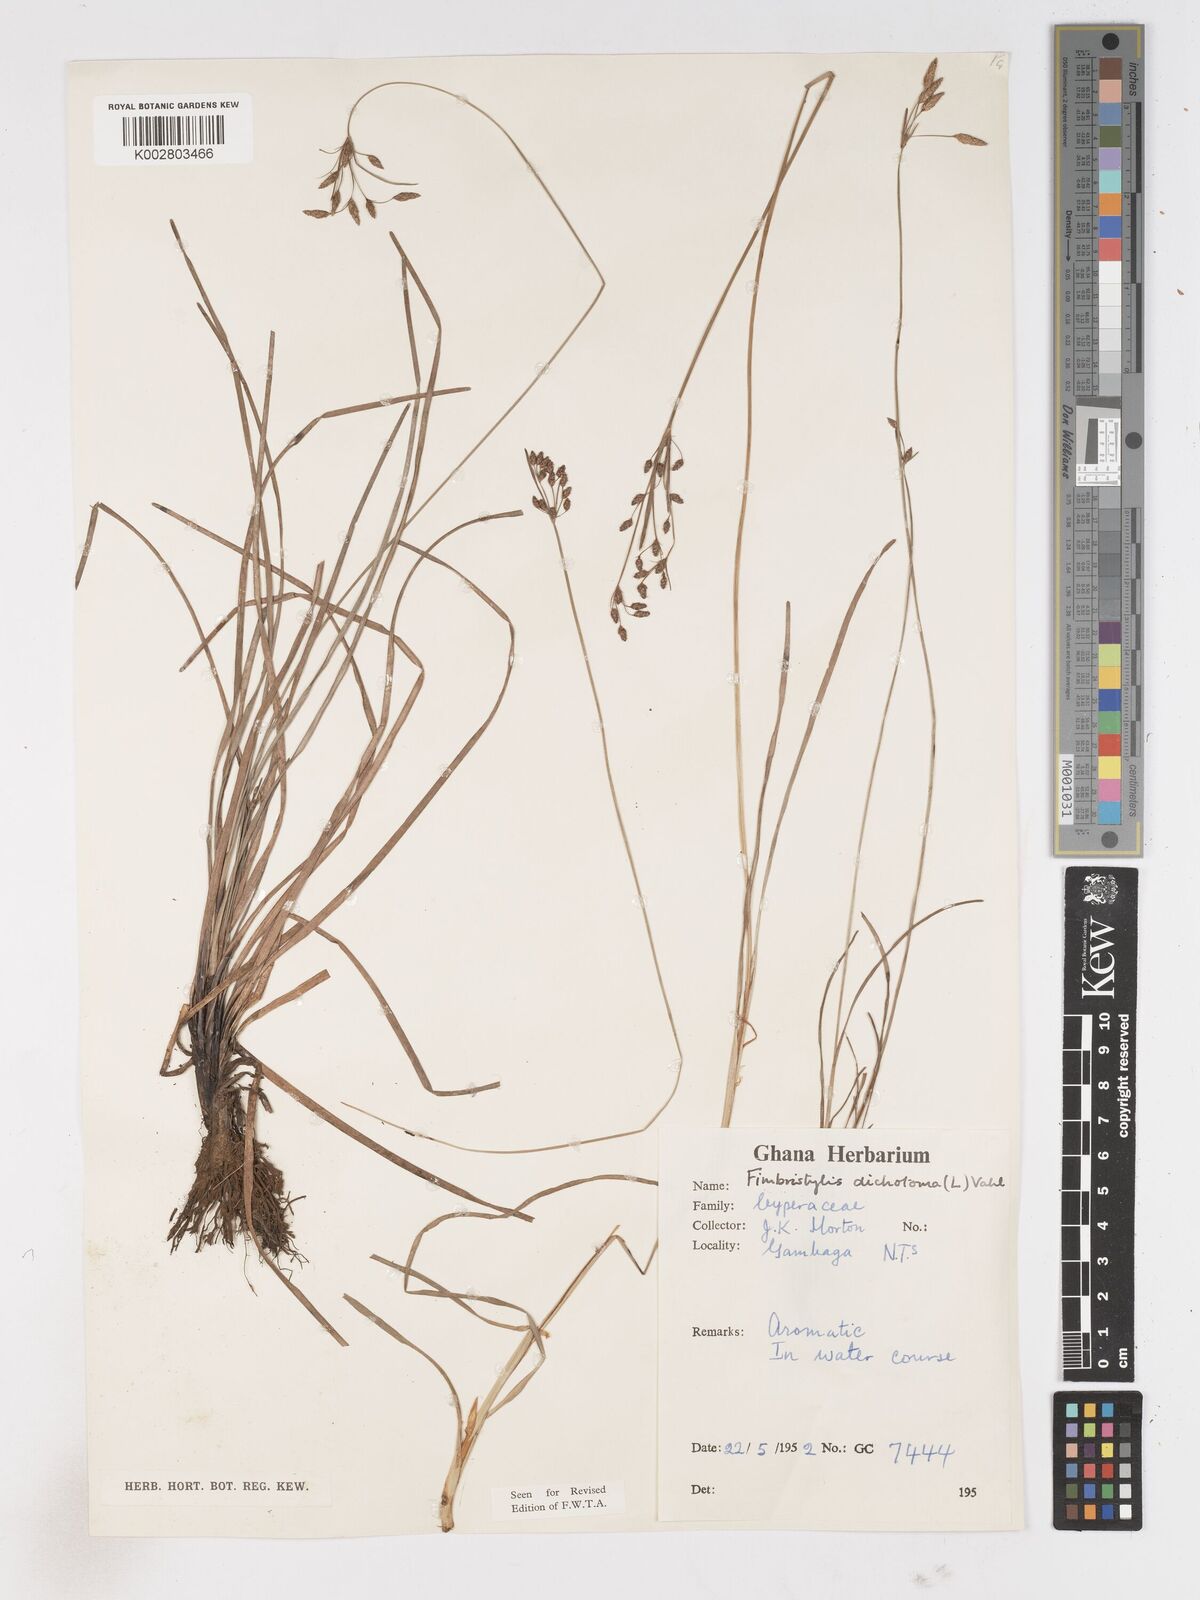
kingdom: Plantae
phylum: Tracheophyta
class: Liliopsida
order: Poales
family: Cyperaceae
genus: Fimbristylis
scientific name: Fimbristylis dichotoma
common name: Forked fimbry
